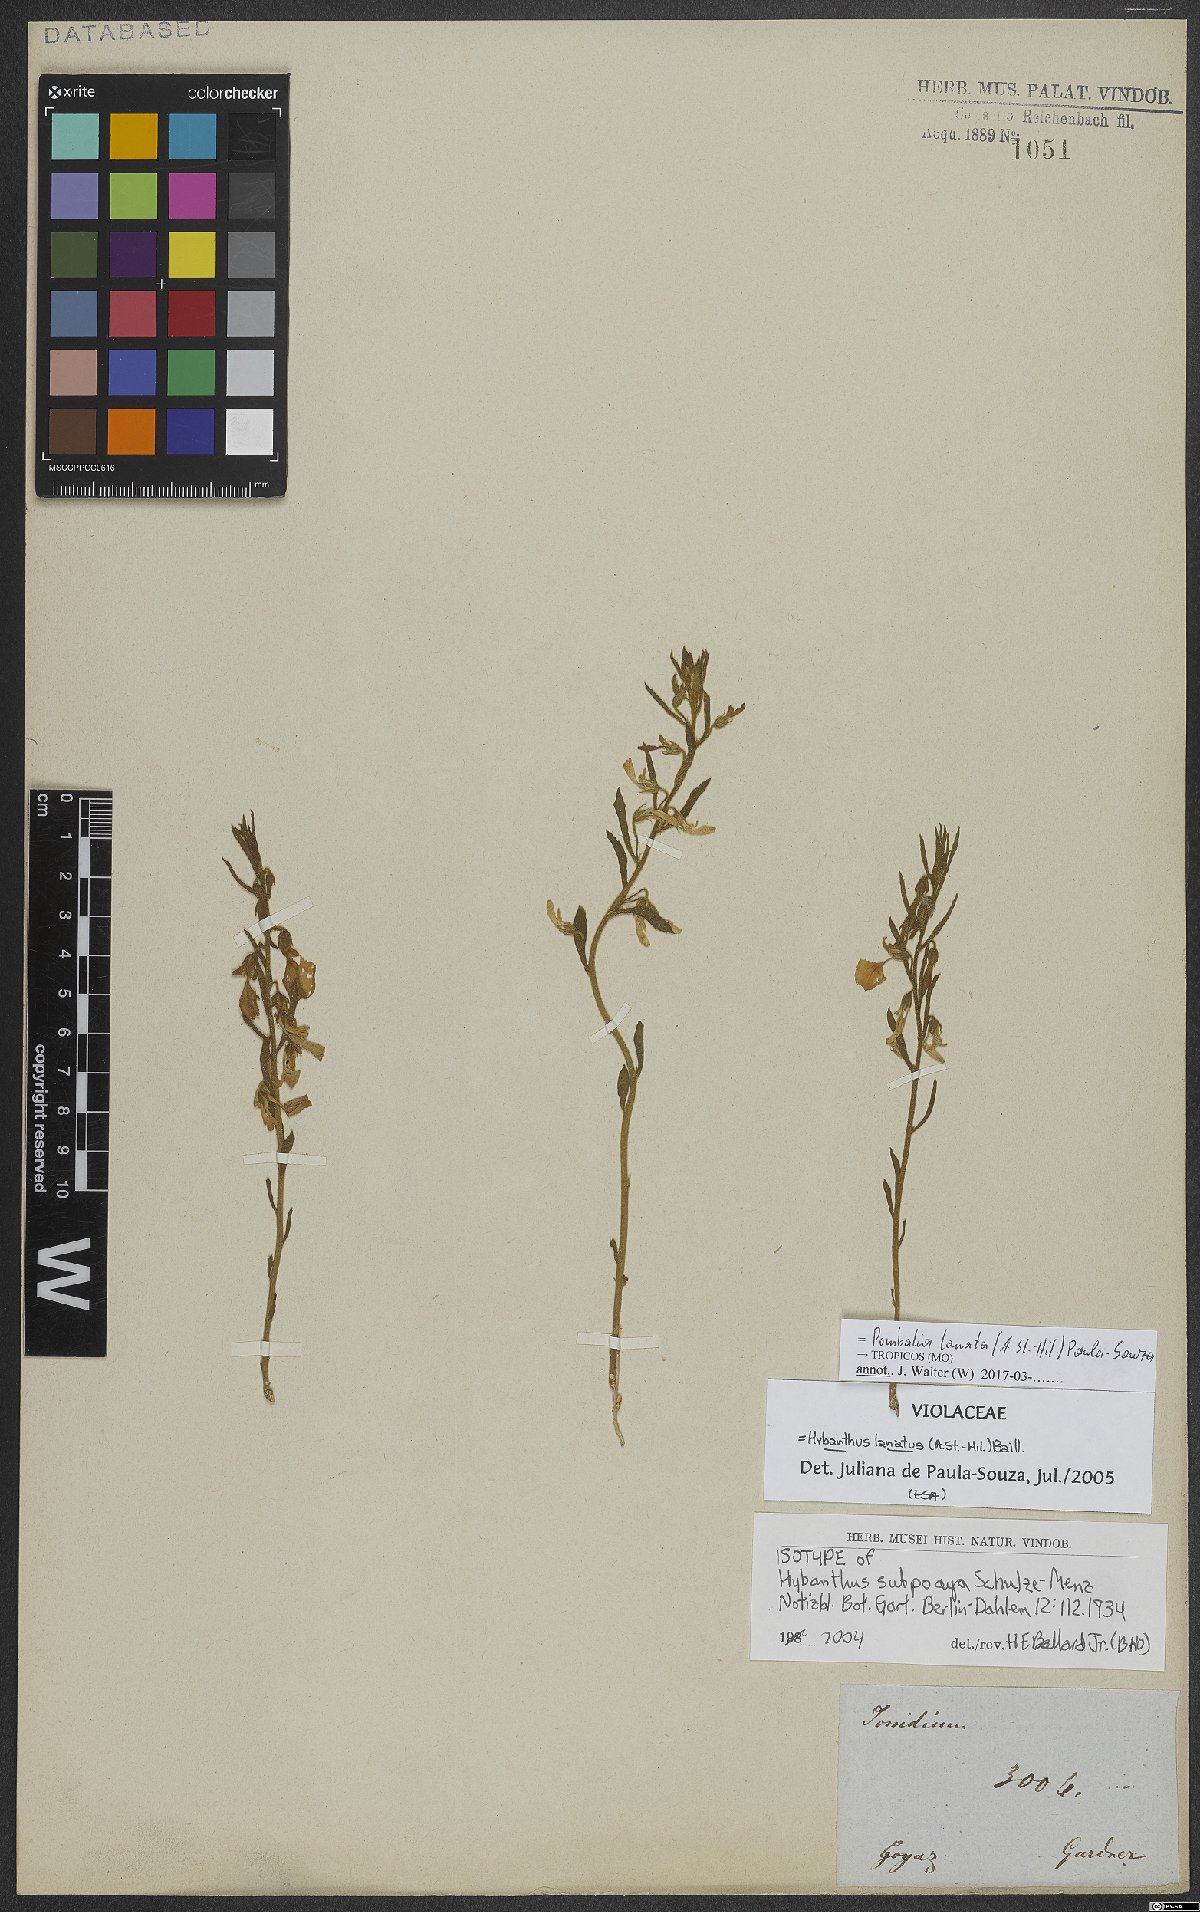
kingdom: Plantae
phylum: Tracheophyta
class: Magnoliopsida
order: Malpighiales
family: Violaceae
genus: Pombalia
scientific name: Pombalia lanata
